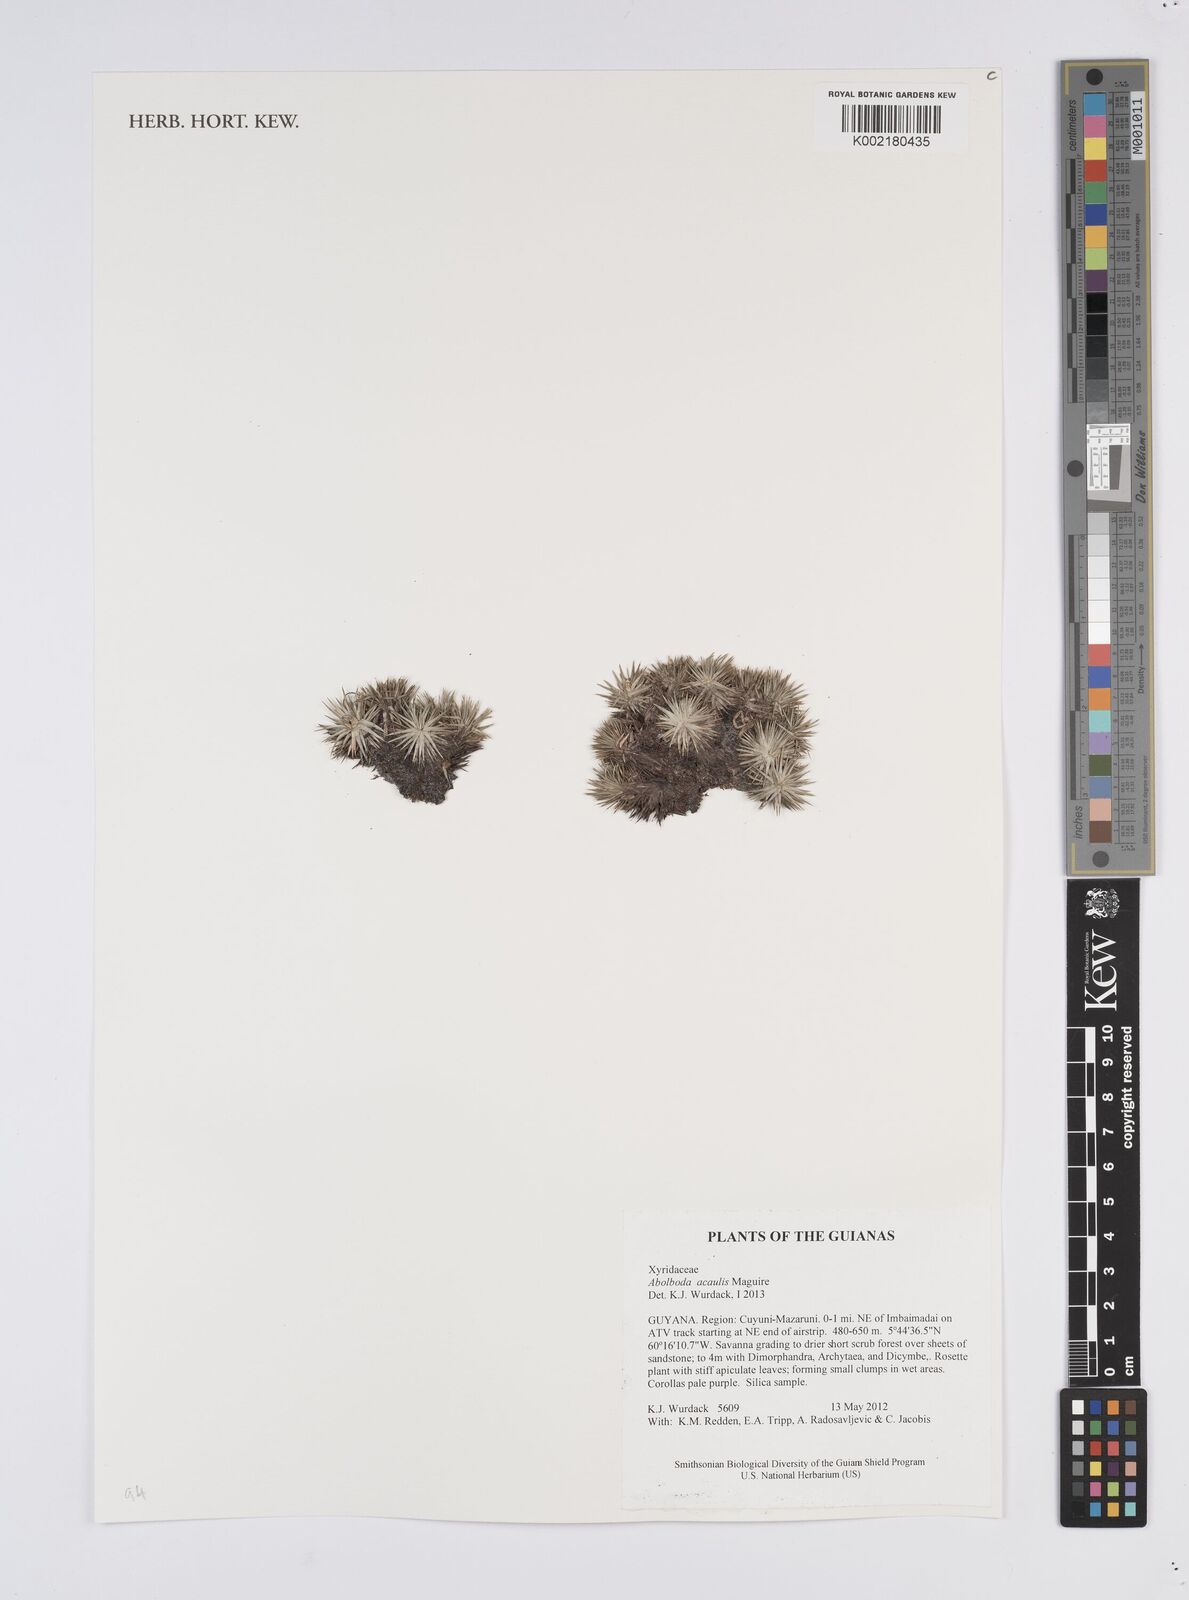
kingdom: Plantae
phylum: Tracheophyta
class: Liliopsida
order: Poales
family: Xyridaceae
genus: Abolboda
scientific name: Abolboda acaulis
